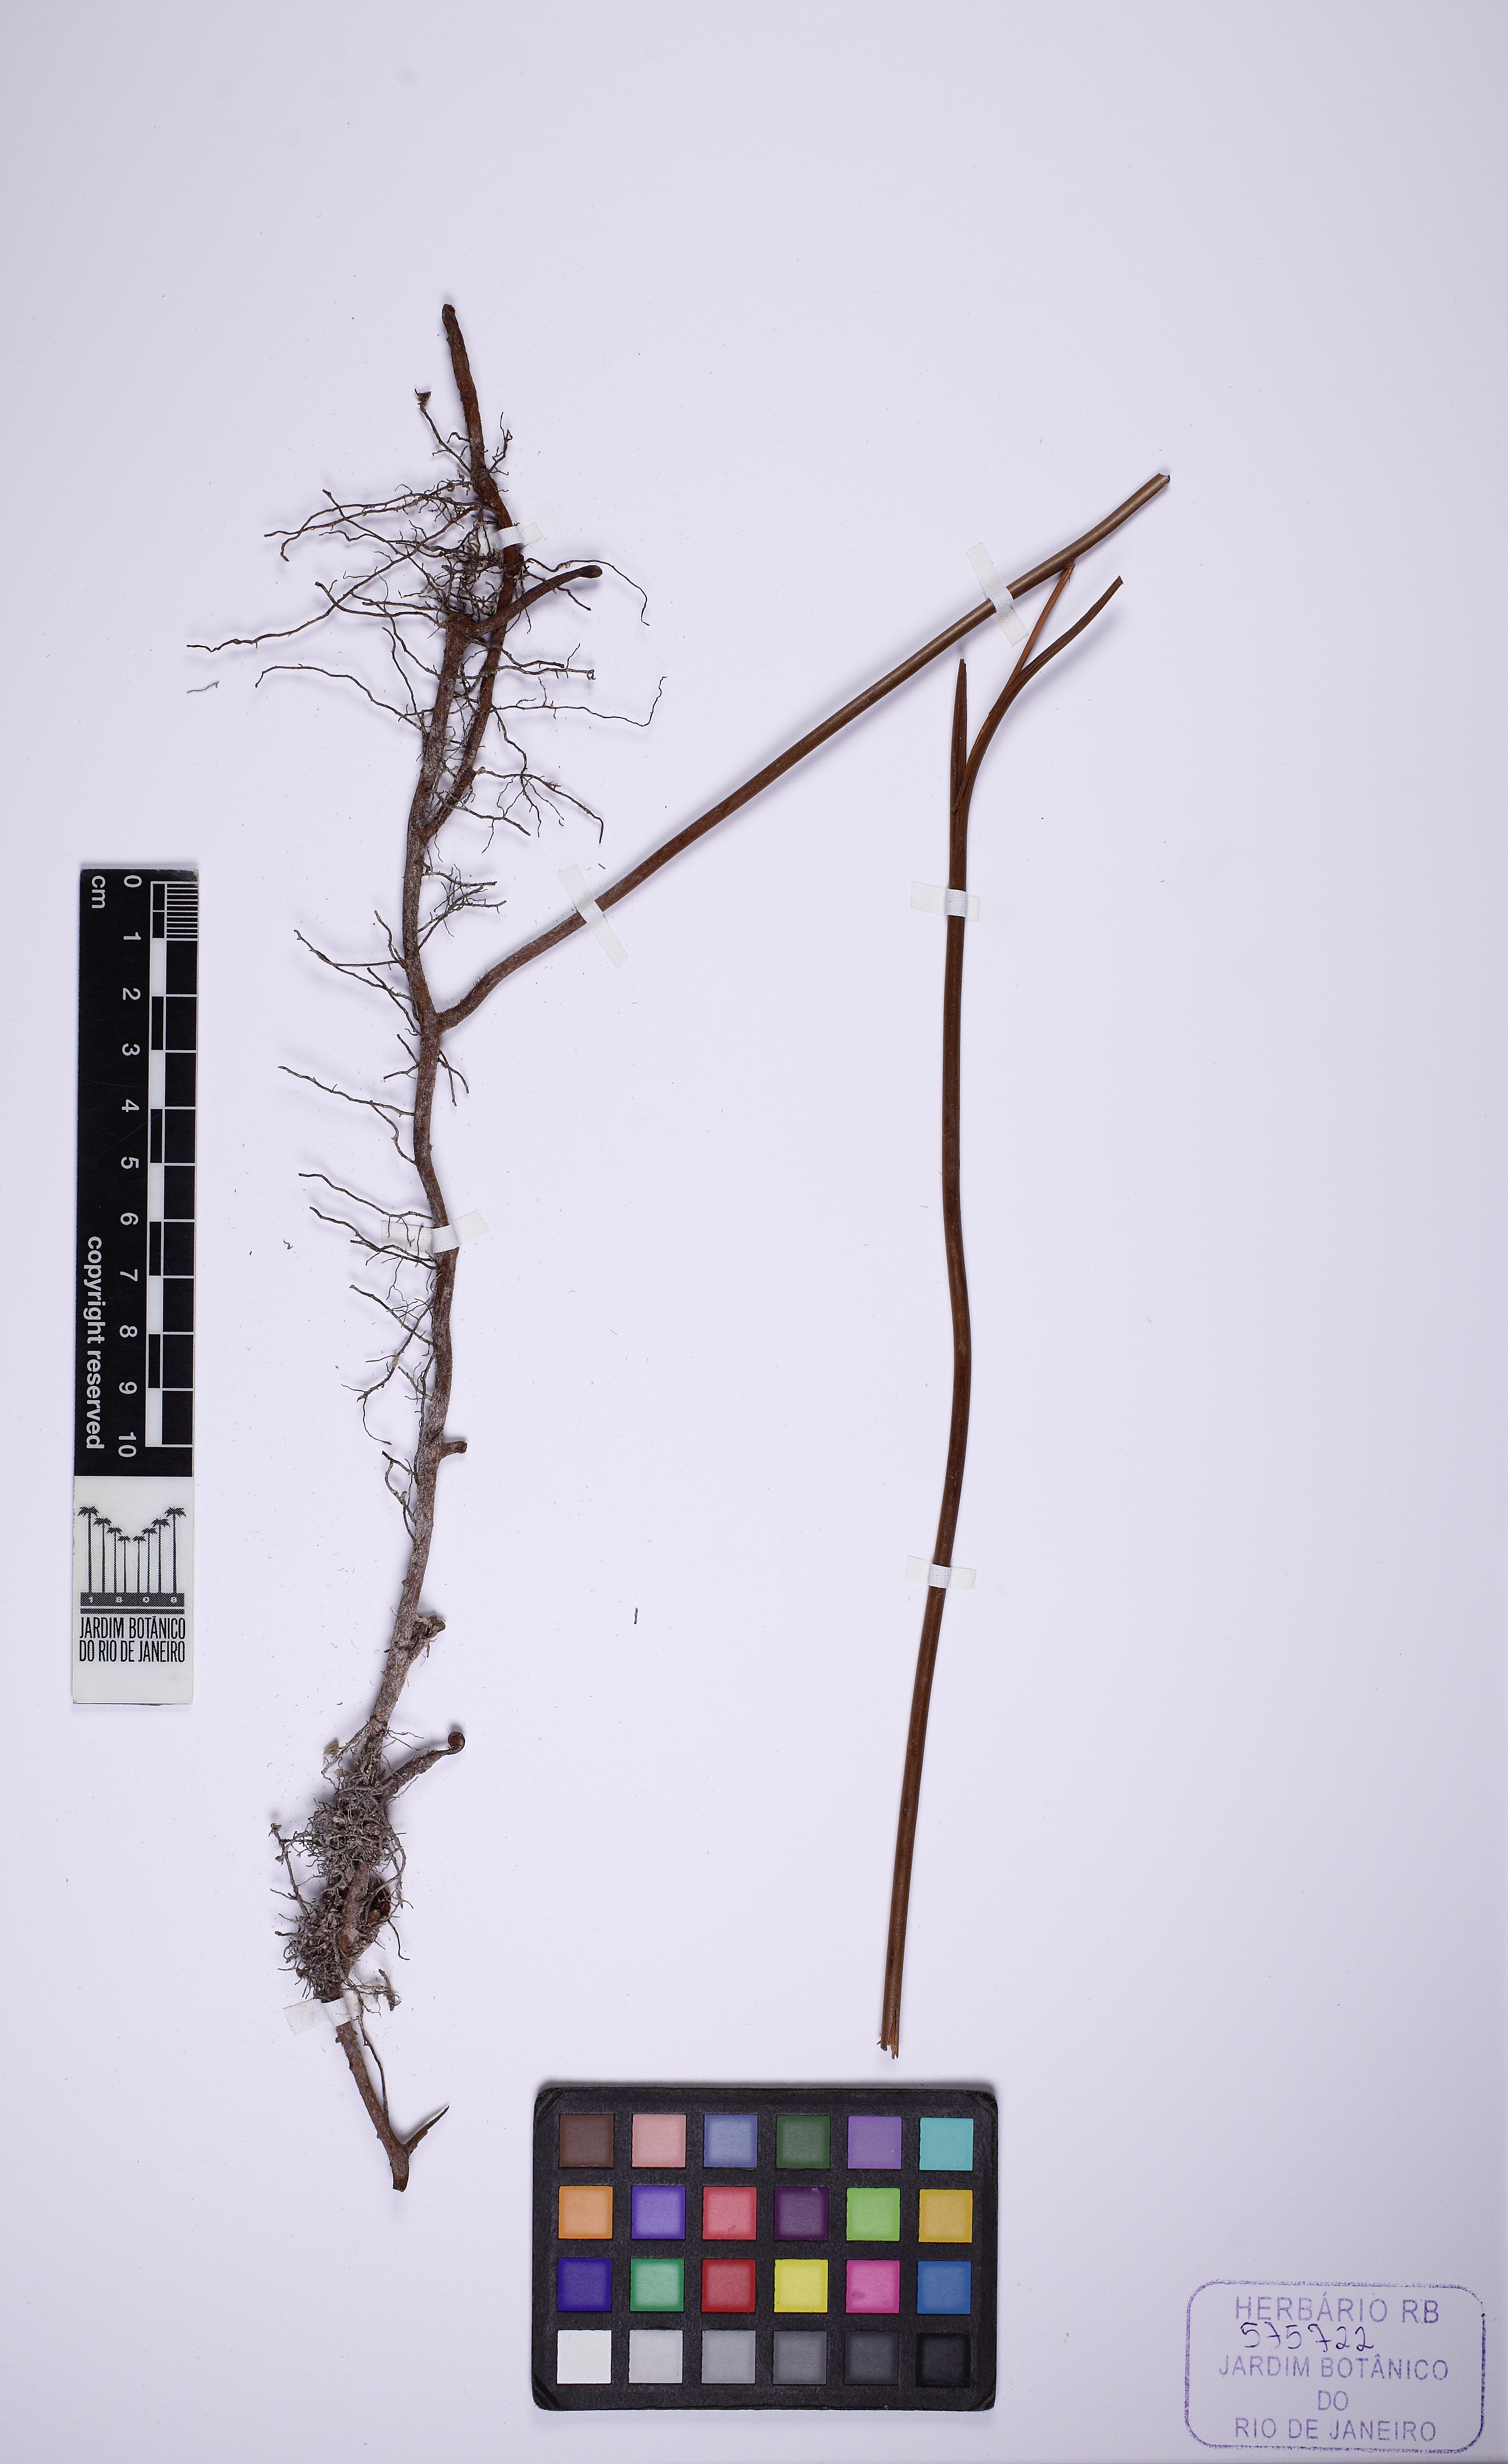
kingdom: Plantae
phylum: Tracheophyta
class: Polypodiopsida
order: Gleicheniales
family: Gleicheniaceae
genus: Dicranopteris
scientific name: Dicranopteris flexuosa
